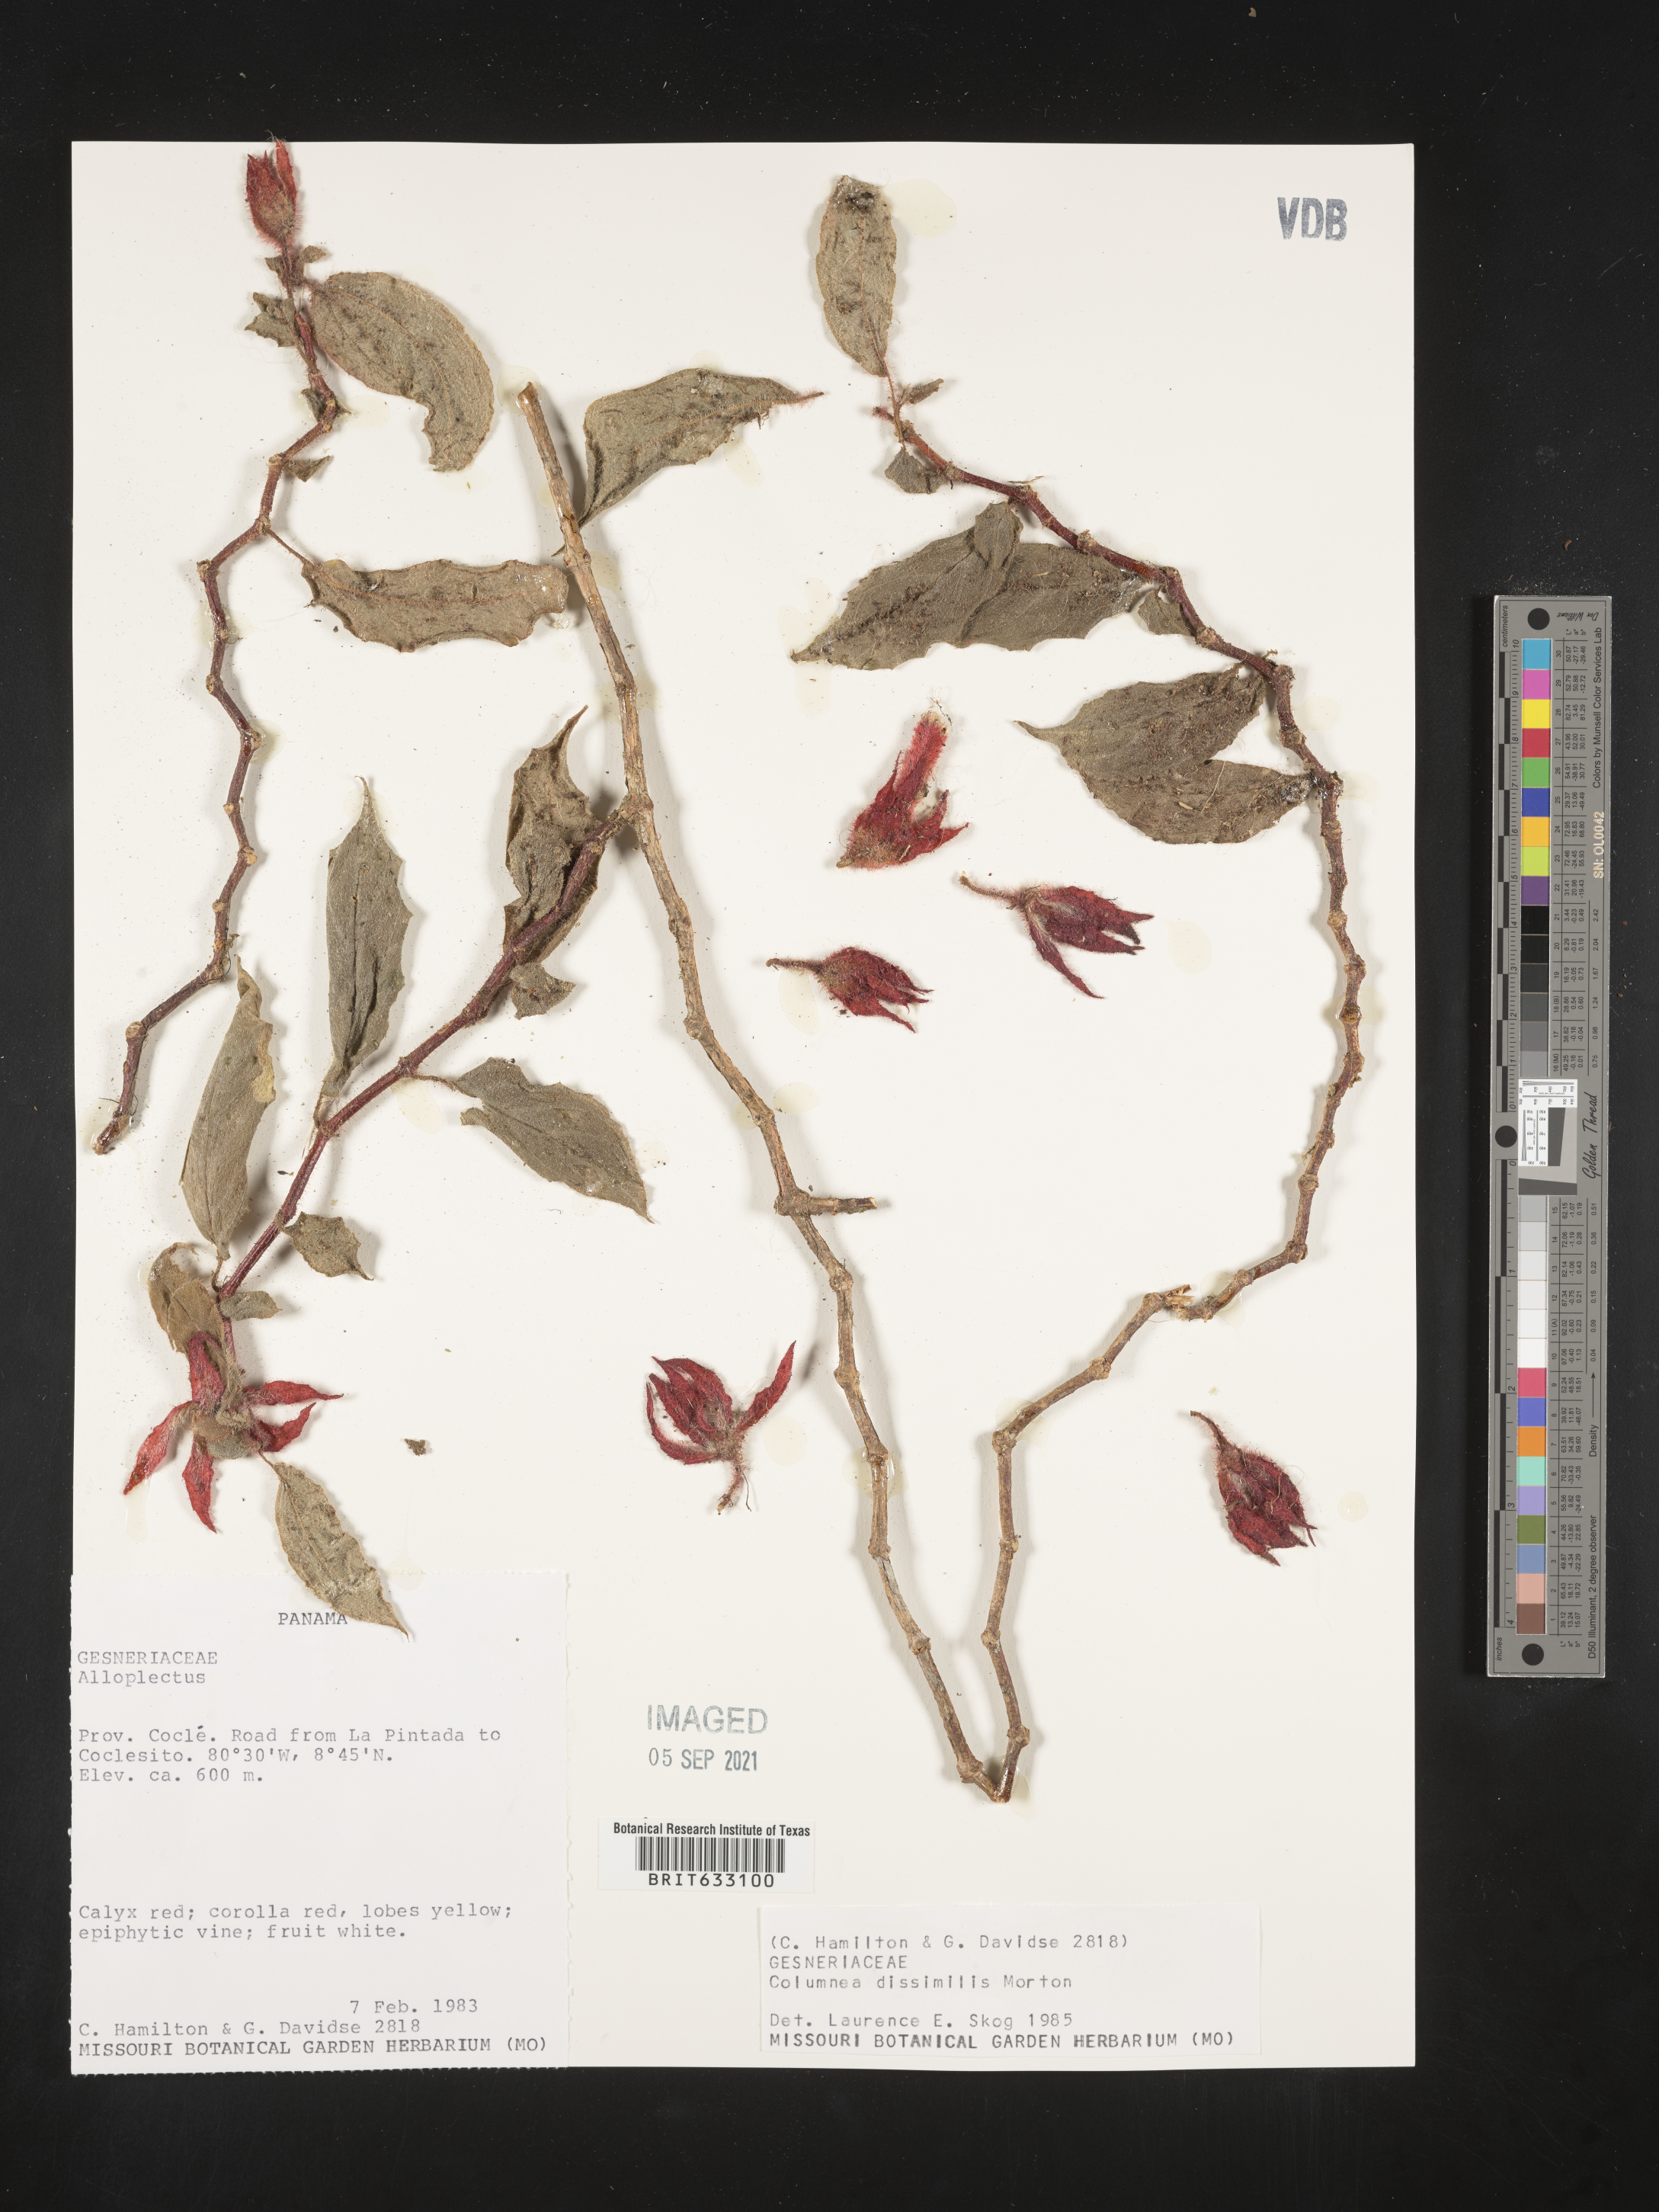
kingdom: Plantae
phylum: Tracheophyta
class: Magnoliopsida
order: Lamiales
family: Gesneriaceae
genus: Columnea
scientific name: Columnea
